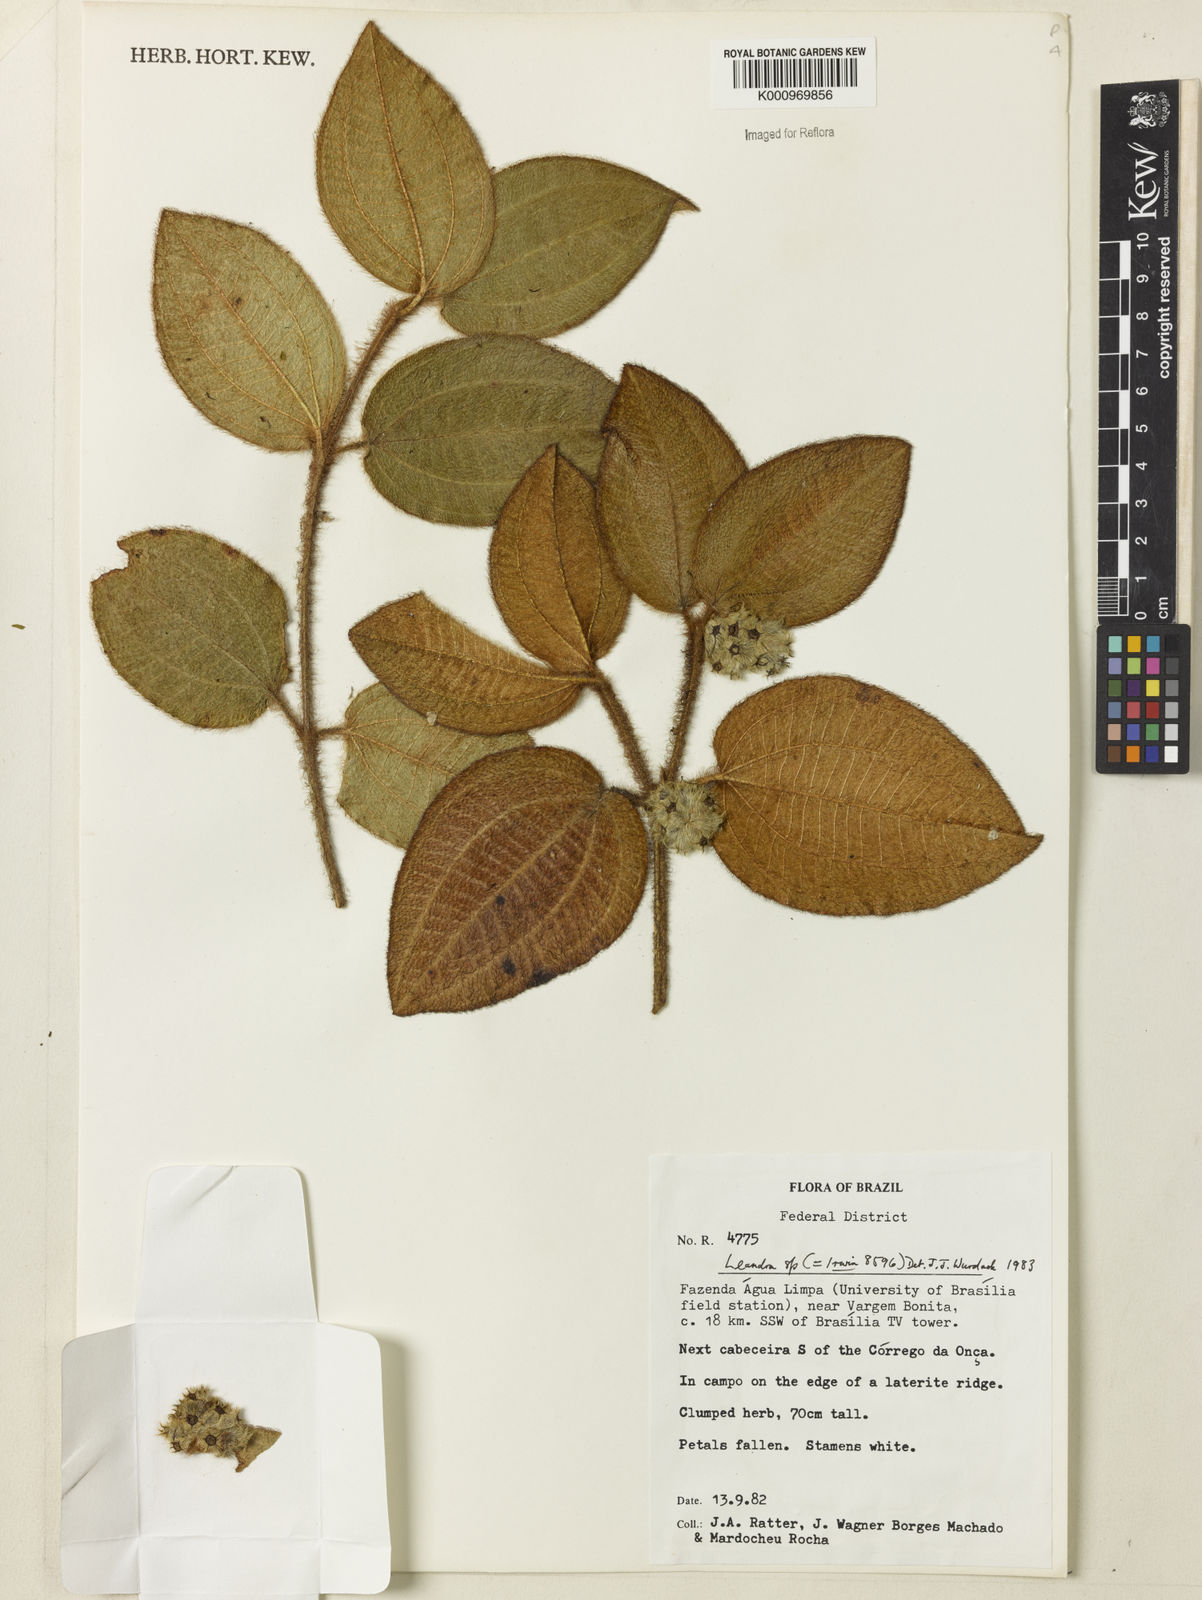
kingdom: Plantae
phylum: Tracheophyta
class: Magnoliopsida
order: Myrtales
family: Melastomataceae
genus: Miconia
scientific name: Miconia
